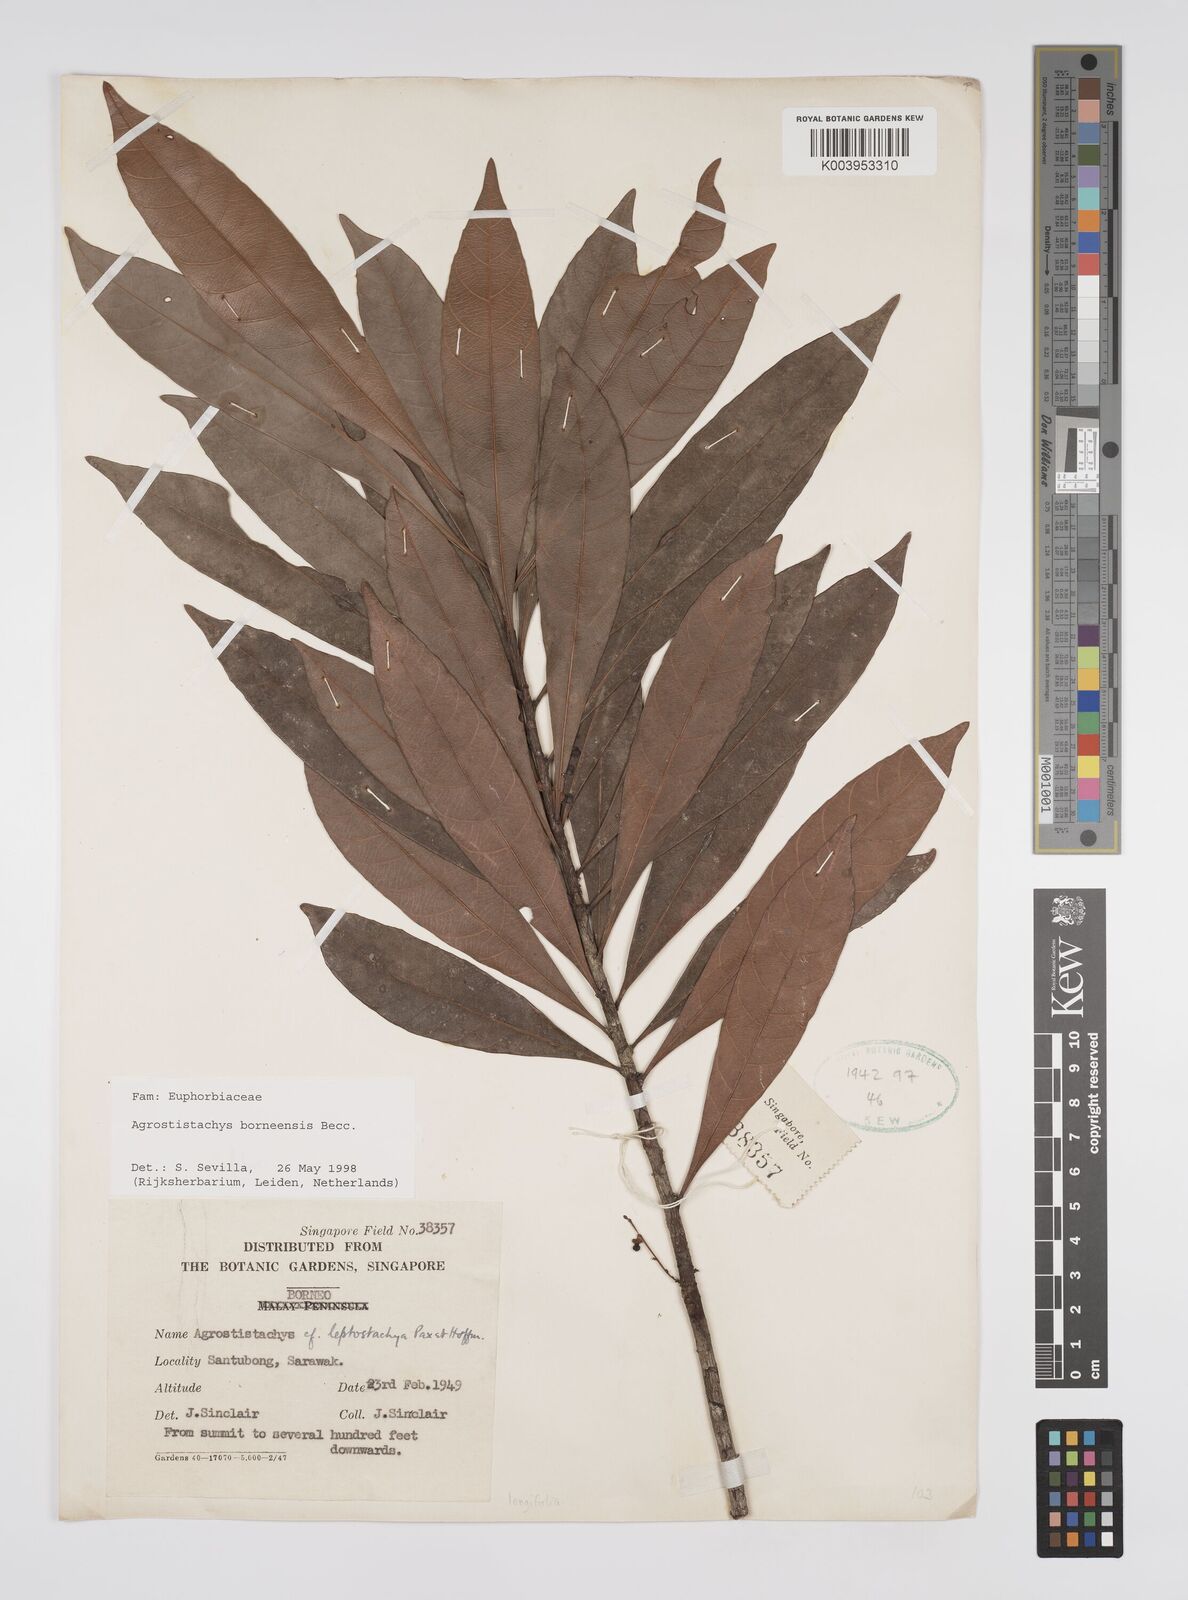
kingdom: Plantae
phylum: Tracheophyta
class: Magnoliopsida
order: Malpighiales
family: Euphorbiaceae
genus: Agrostistachys
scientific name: Agrostistachys borneensis
